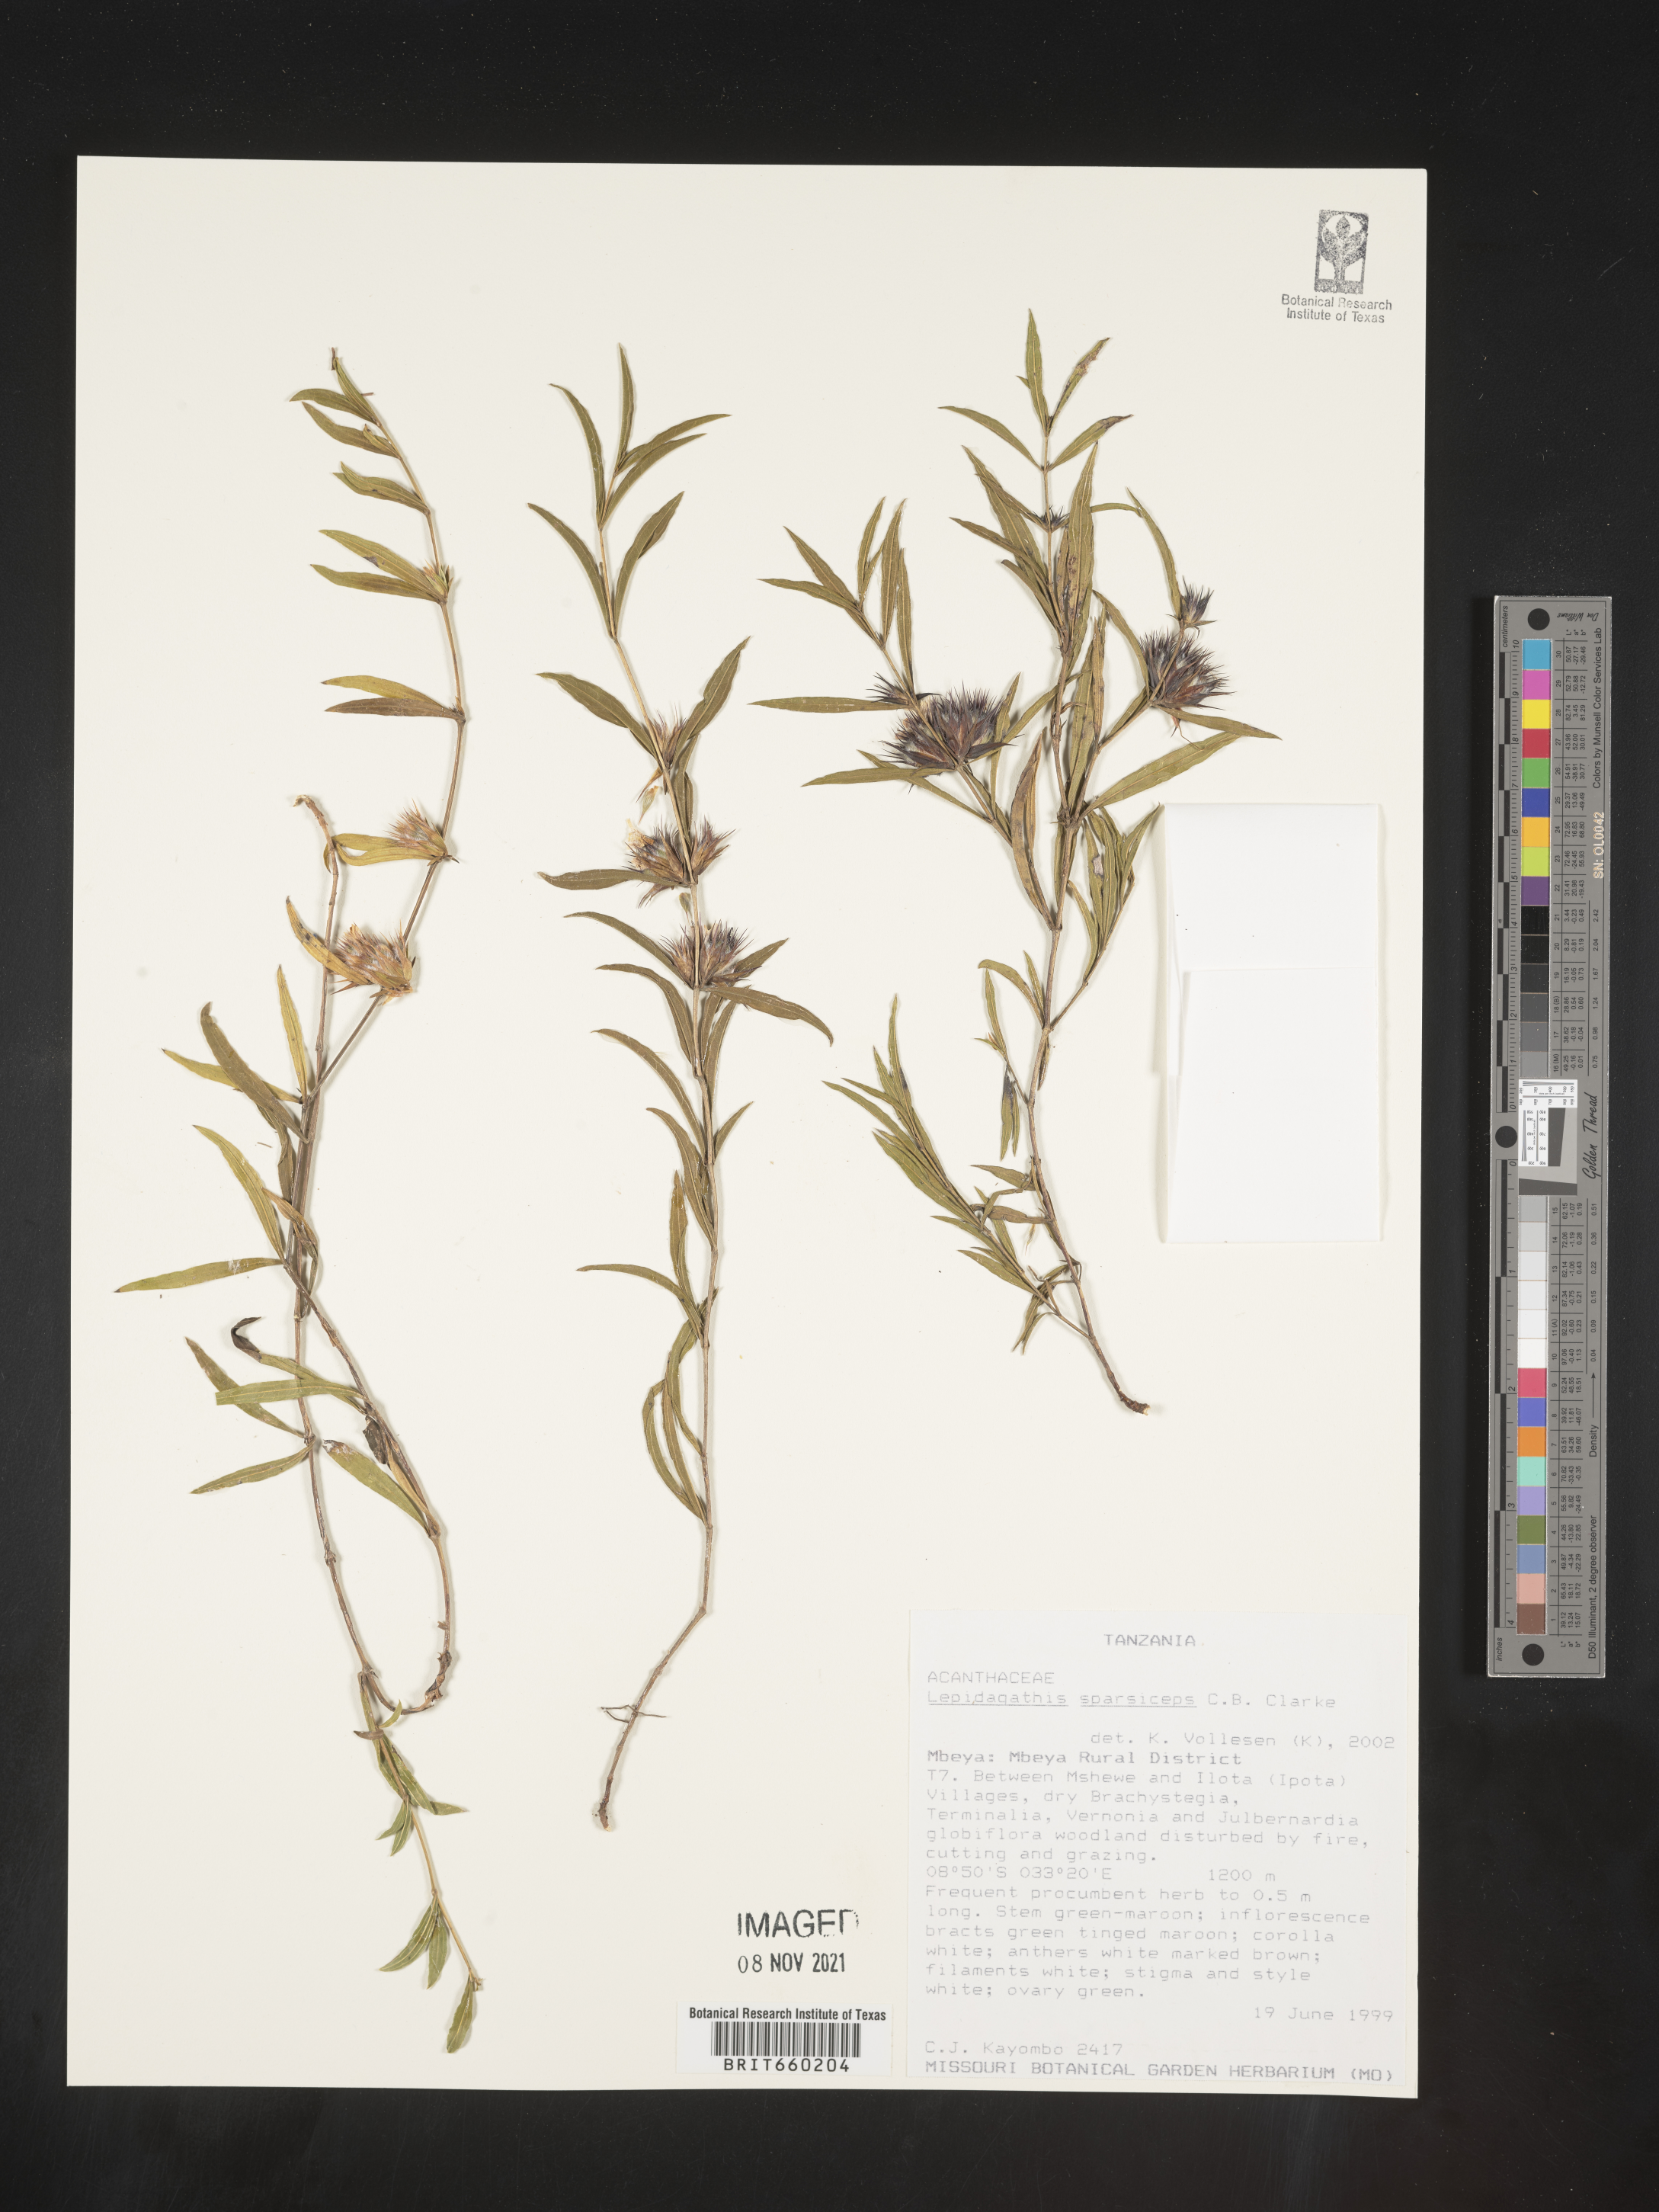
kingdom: Plantae
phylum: Tracheophyta
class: Magnoliopsida
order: Lamiales
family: Acanthaceae
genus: Lepidagathis
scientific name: Lepidagathis
